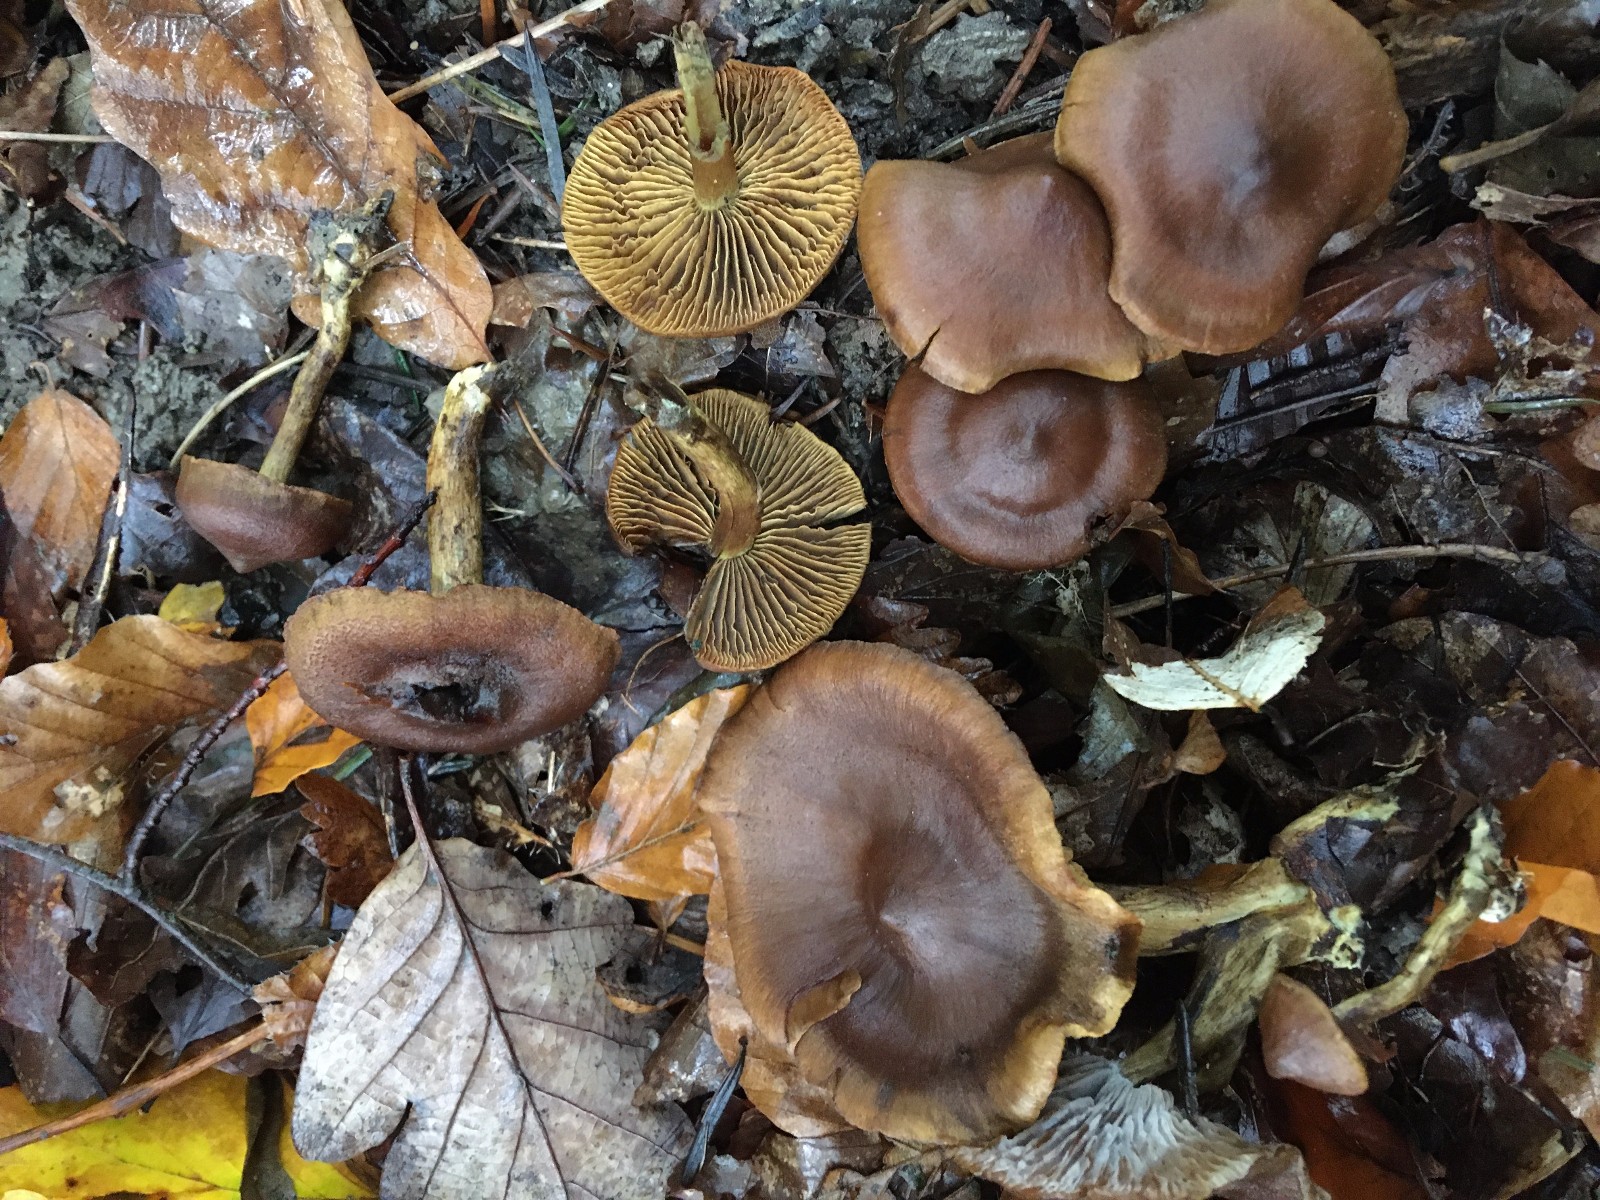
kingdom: Fungi
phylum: Basidiomycota
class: Agaricomycetes
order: Agaricales
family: Cortinariaceae
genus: Cortinarius
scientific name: Cortinarius ultrodistortus
